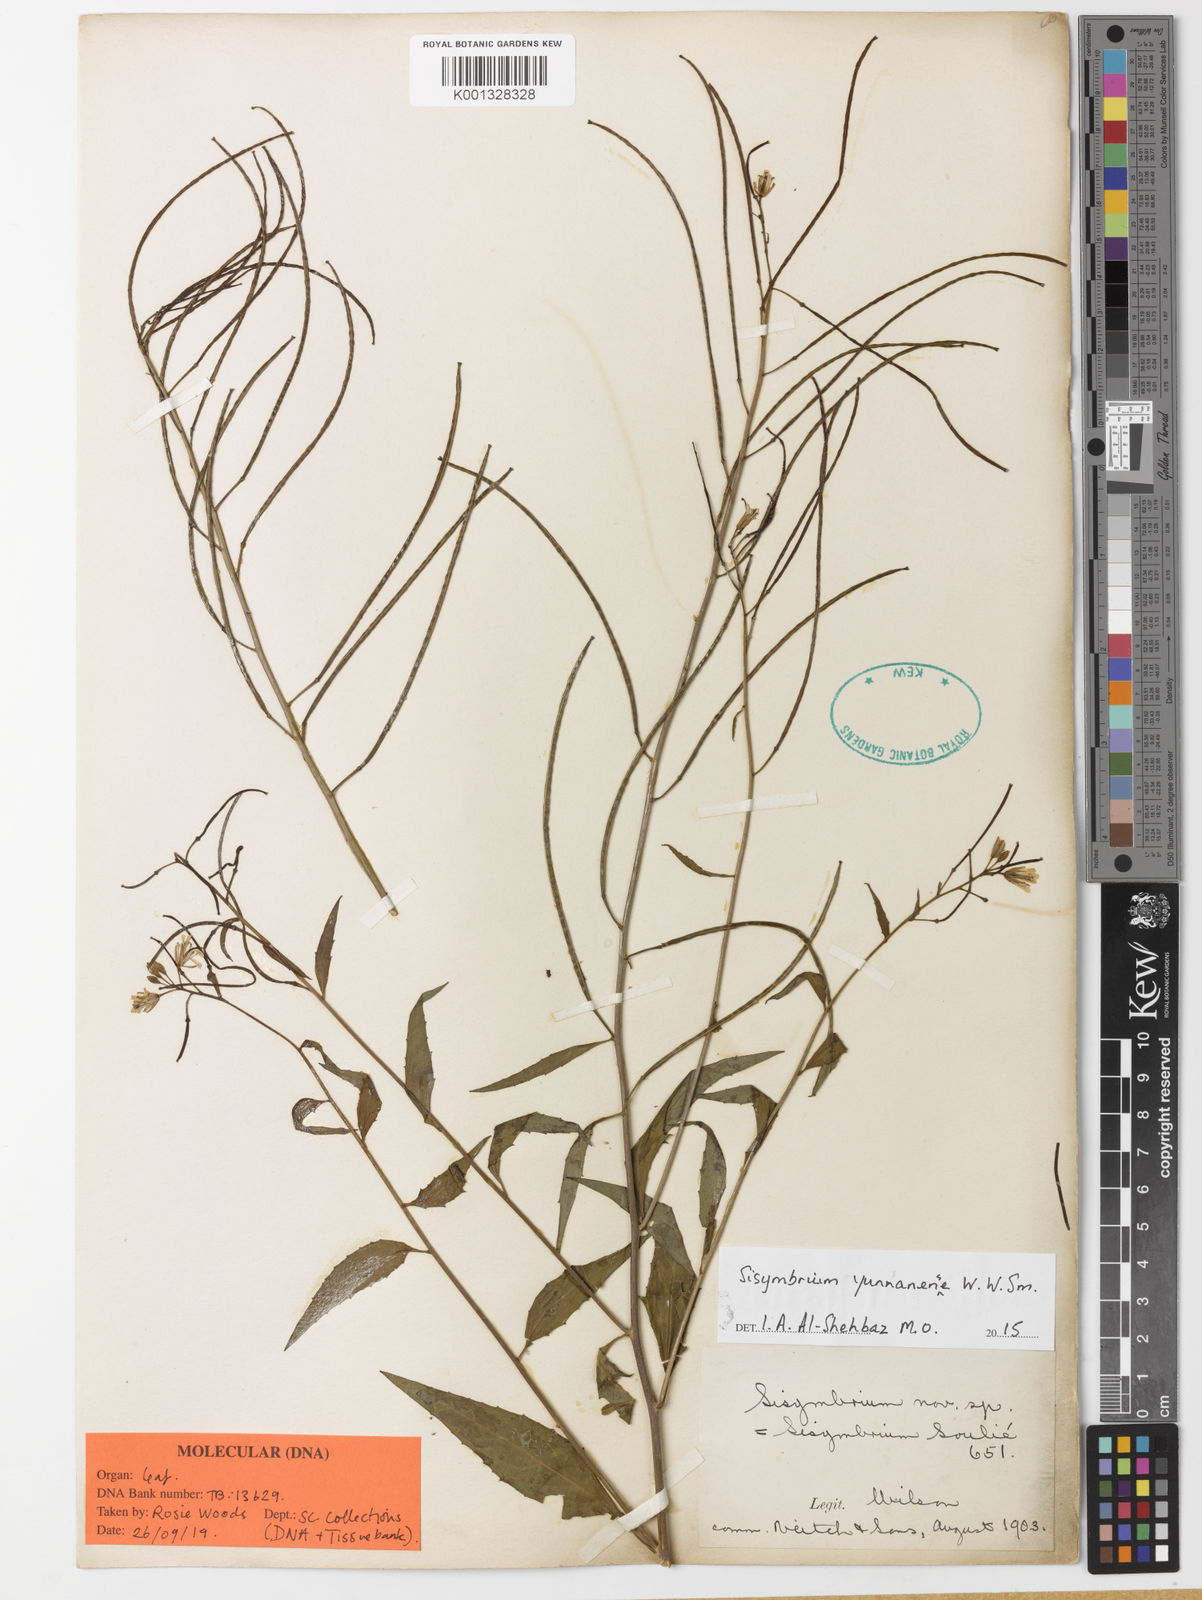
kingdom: Plantae
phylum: Tracheophyta
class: Magnoliopsida
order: Brassicales
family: Brassicaceae
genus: Sisymbrium
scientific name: Sisymbrium yunnanense
